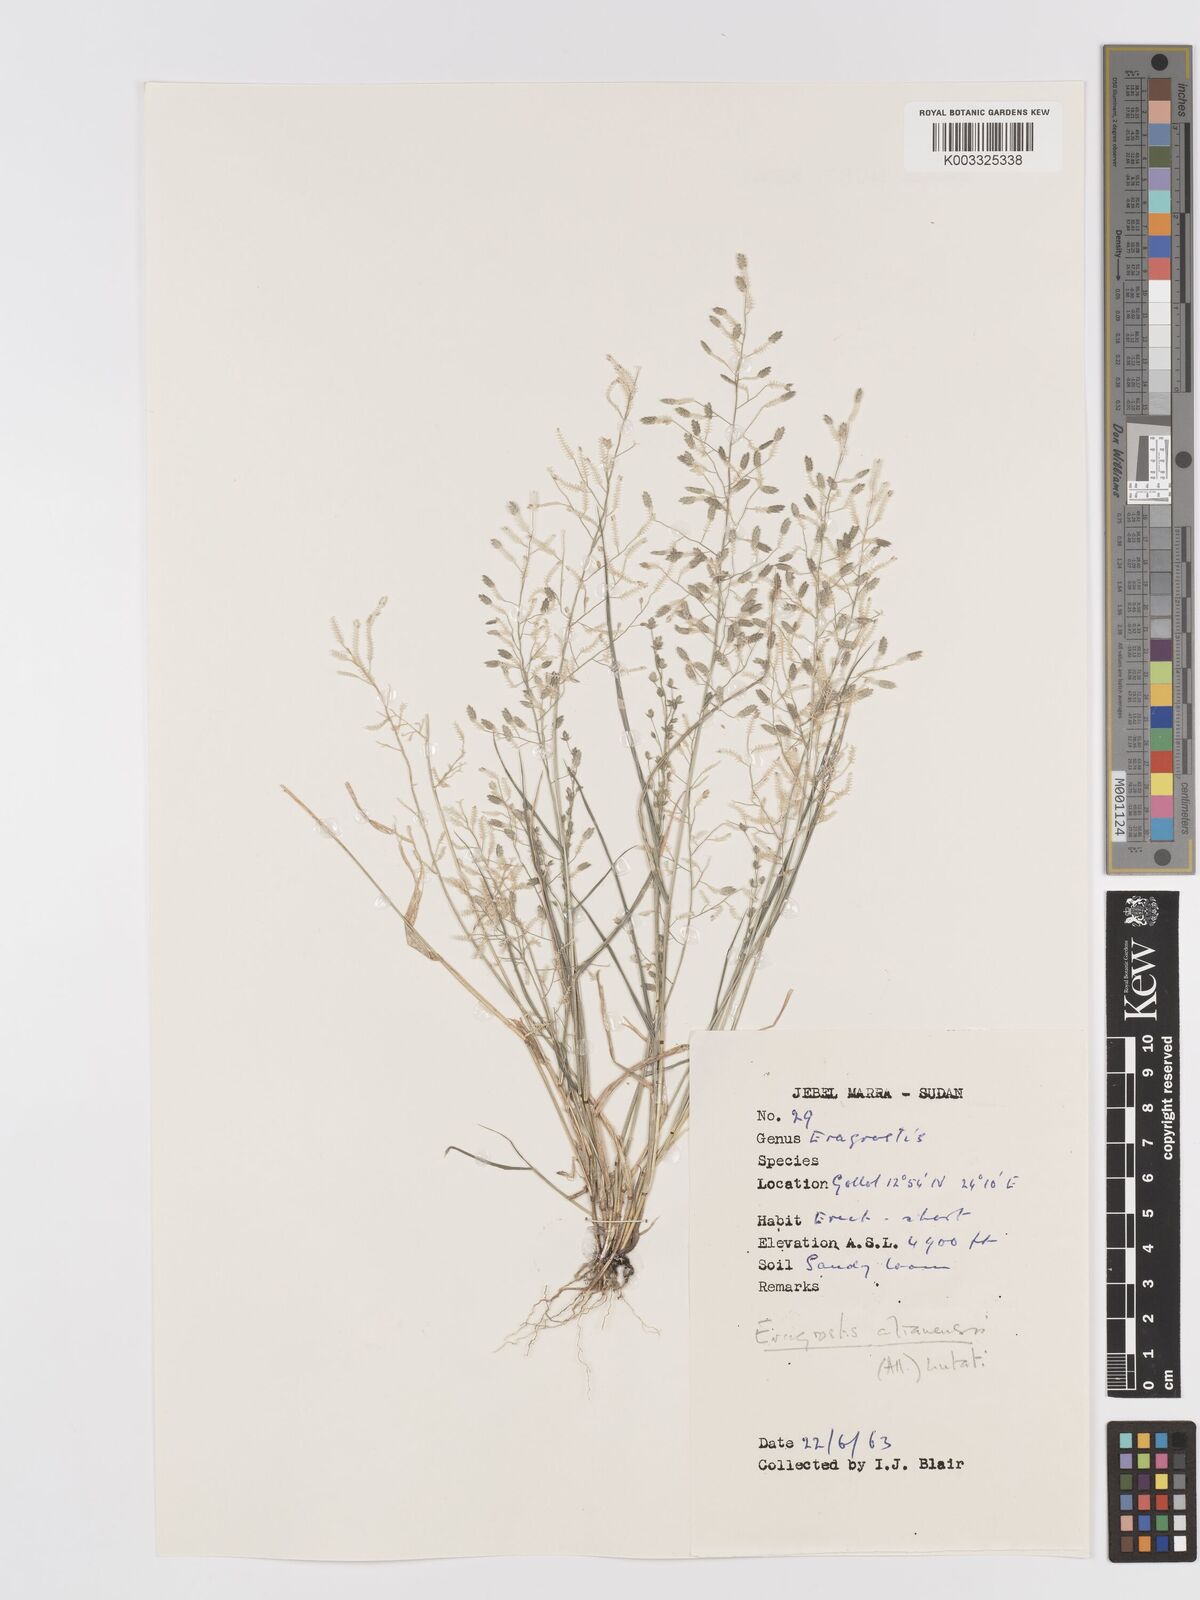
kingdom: Plantae
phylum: Tracheophyta
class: Liliopsida
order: Poales
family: Poaceae
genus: Eragrostis
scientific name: Eragrostis cilianensis
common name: Stinkgrass
